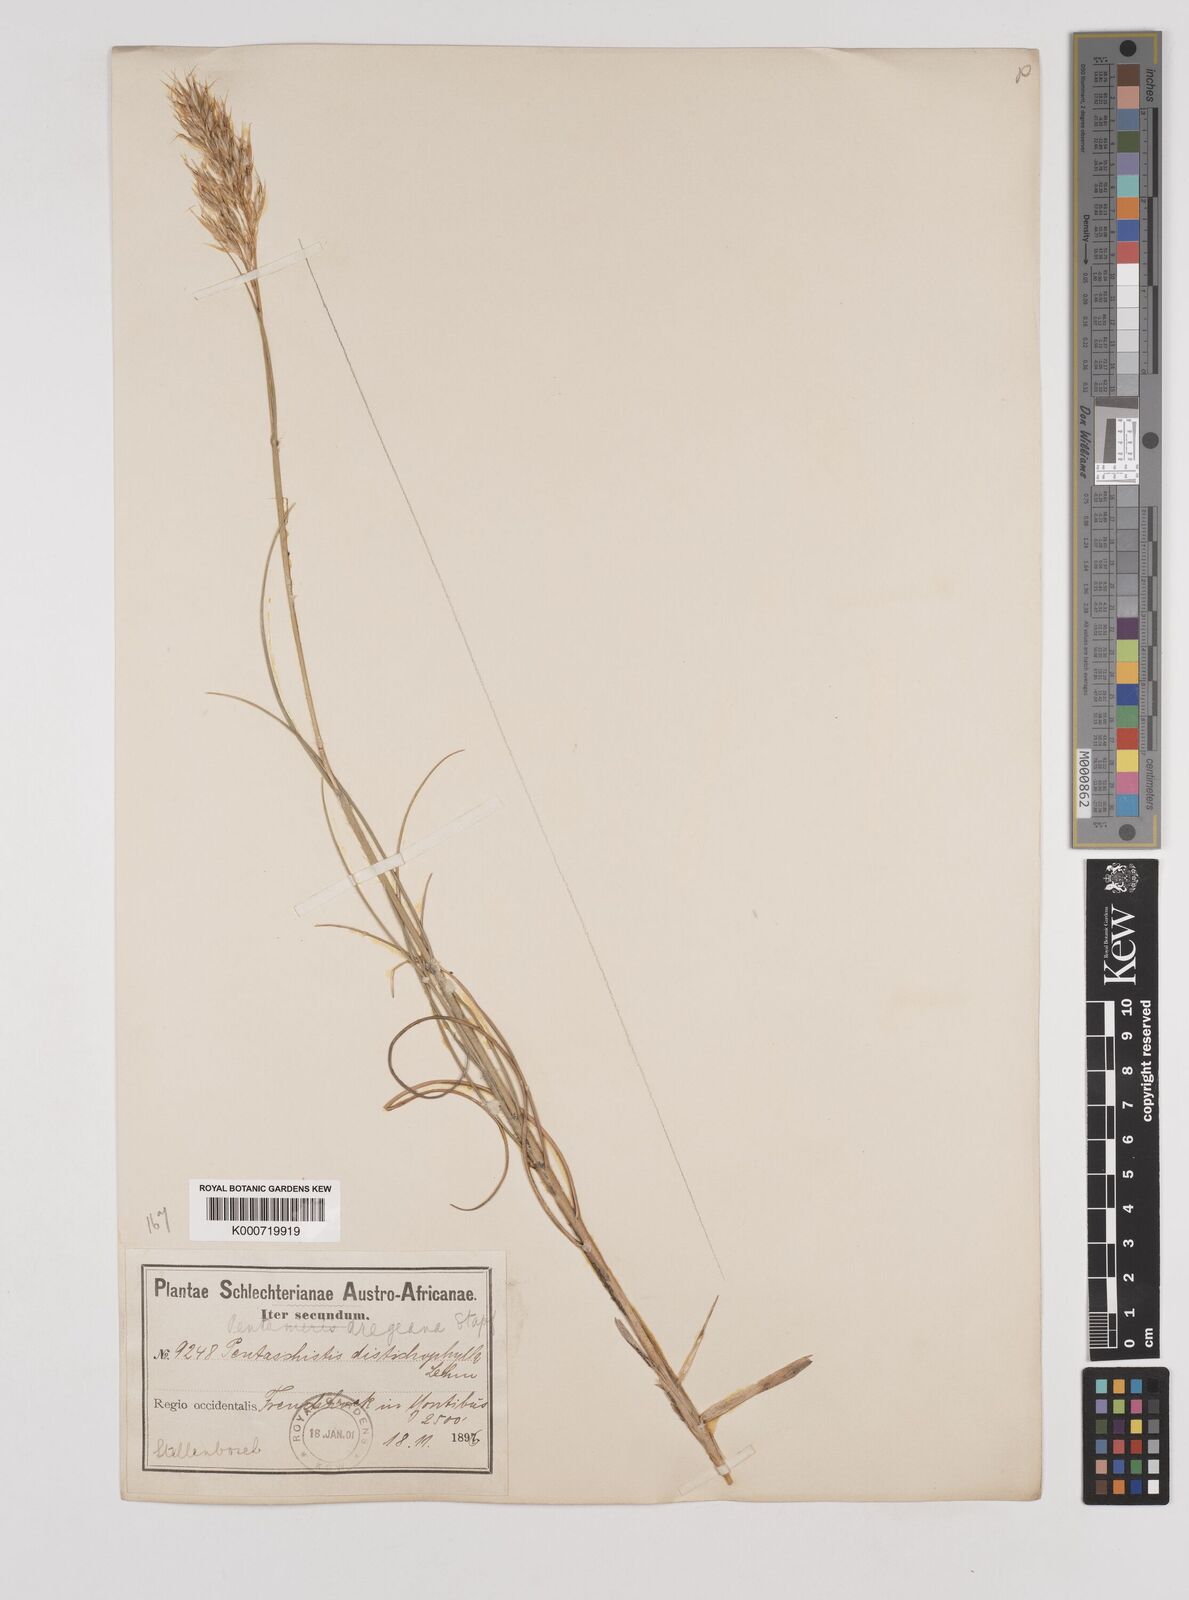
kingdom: Plantae
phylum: Tracheophyta
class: Liliopsida
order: Poales
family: Poaceae
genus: Pentameris
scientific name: Pentameris dregeana
